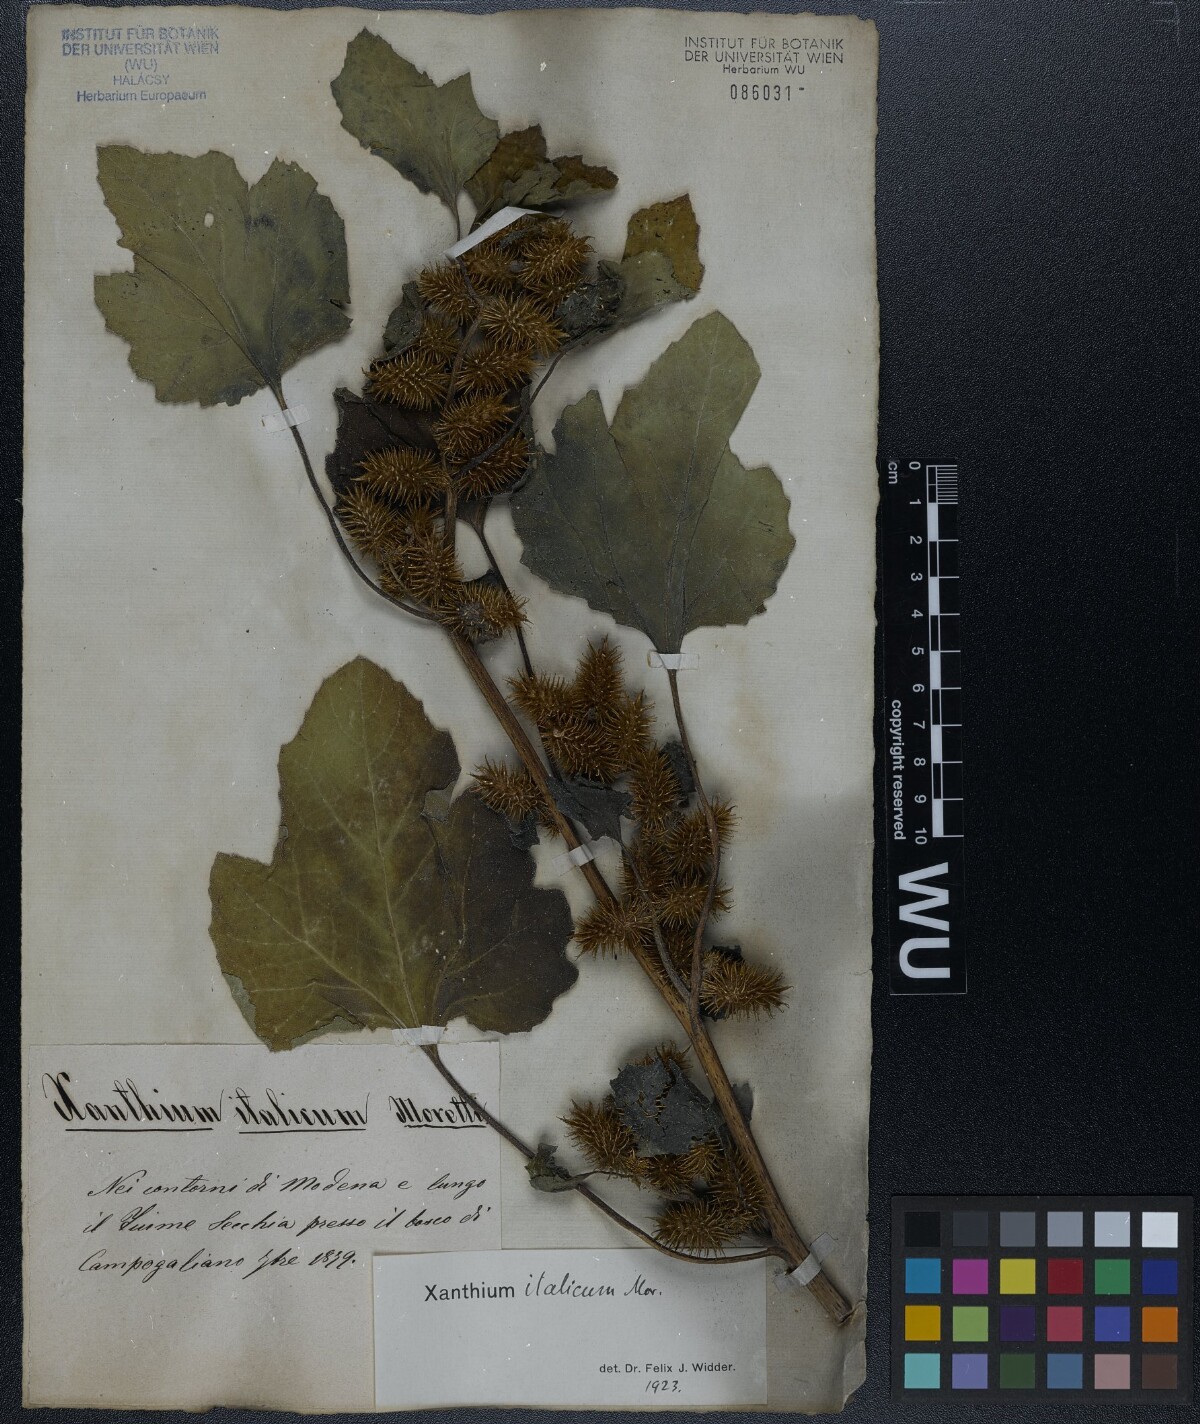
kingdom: Plantae
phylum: Tracheophyta
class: Magnoliopsida
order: Asterales
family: Asteraceae
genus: Xanthium
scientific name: Xanthium orientale
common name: Californian burr
